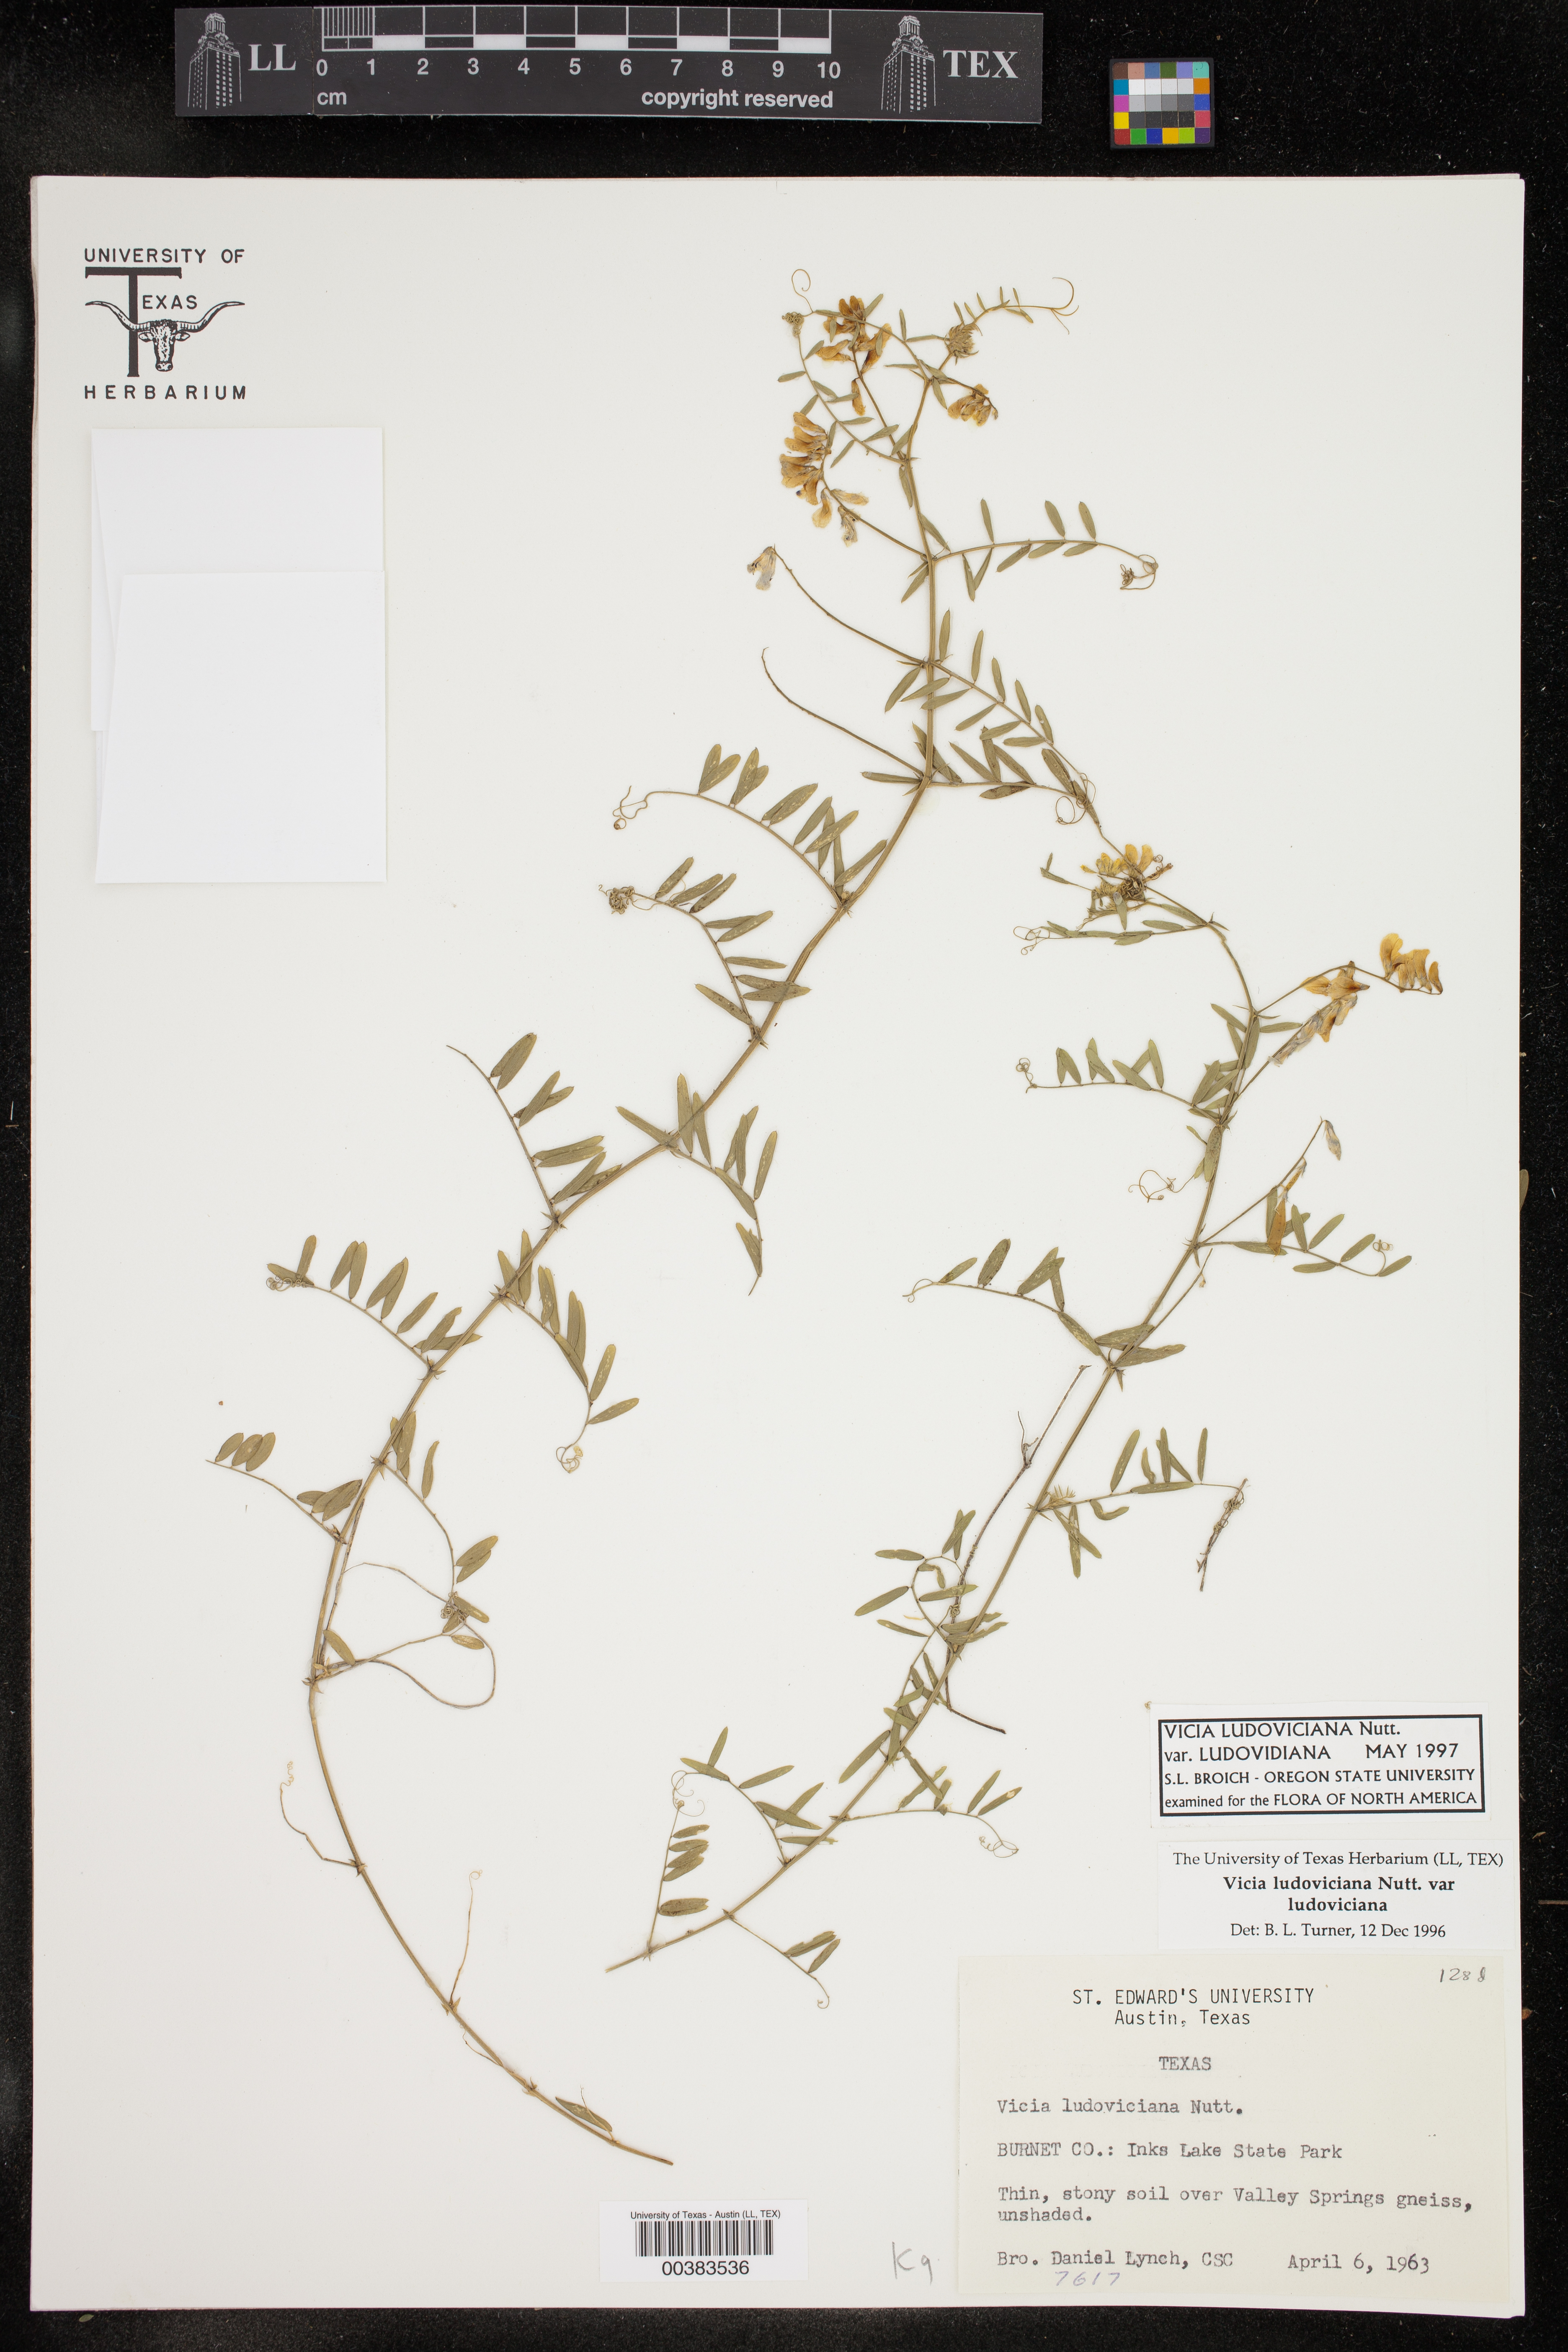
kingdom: Plantae
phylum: Tracheophyta
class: Magnoliopsida
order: Fabales
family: Fabaceae
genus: Vicia
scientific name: Vicia ludoviciana
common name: Louisiana vetch
